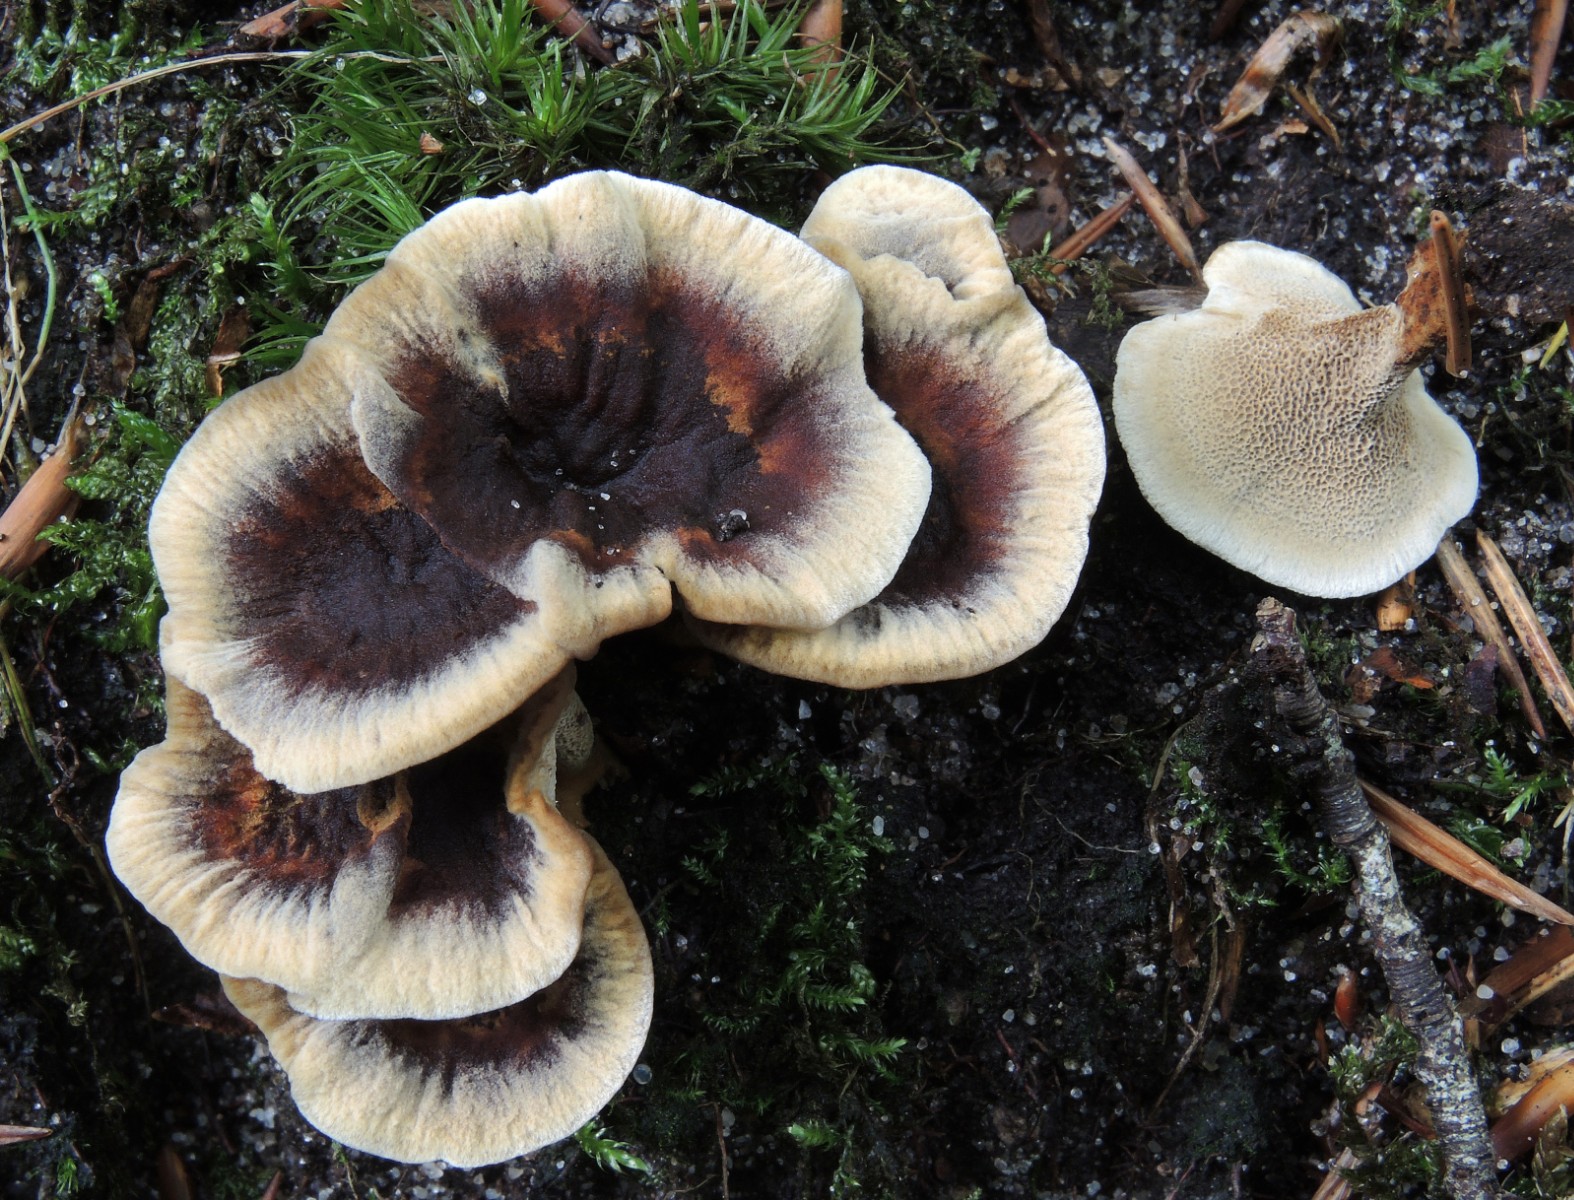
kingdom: Fungi
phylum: Basidiomycota
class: Agaricomycetes
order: Hymenochaetales
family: Hymenochaetaceae
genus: Coltricia
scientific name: Coltricia perennis
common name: almindelig sandporesvamp
